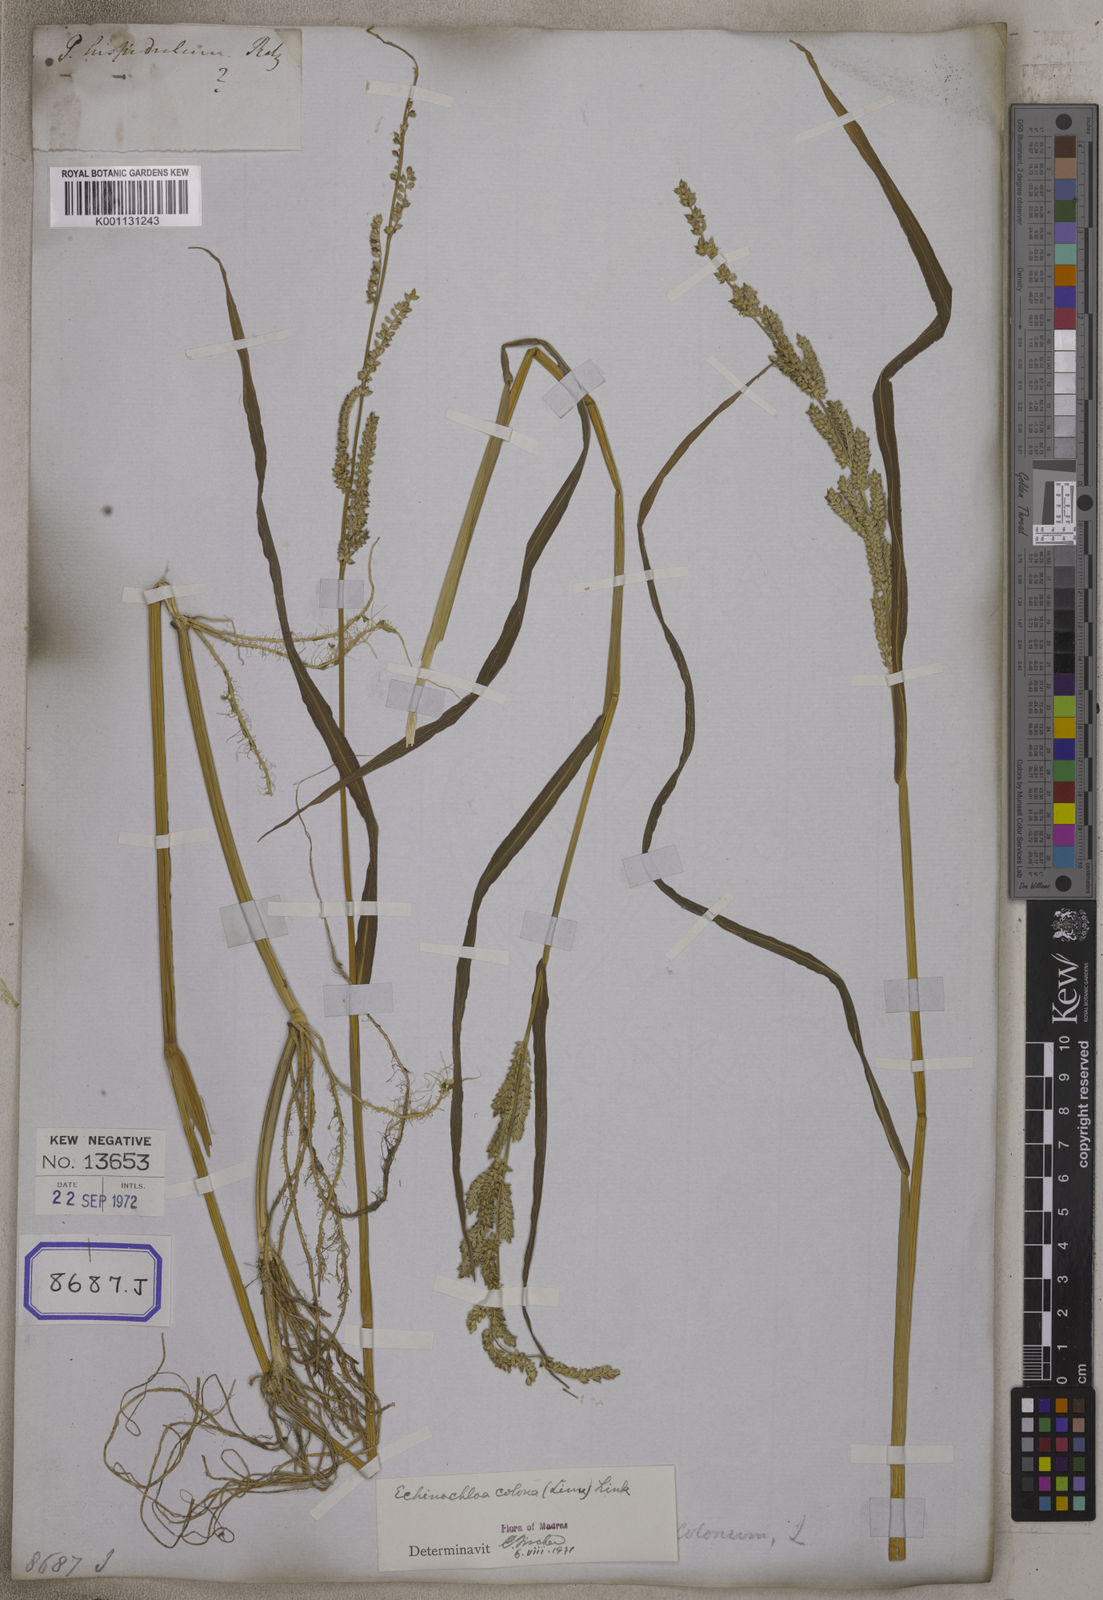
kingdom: Plantae
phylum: Tracheophyta
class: Liliopsida
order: Poales
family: Poaceae
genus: Echinochloa
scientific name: Echinochloa crus-galli
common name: Cockspur
